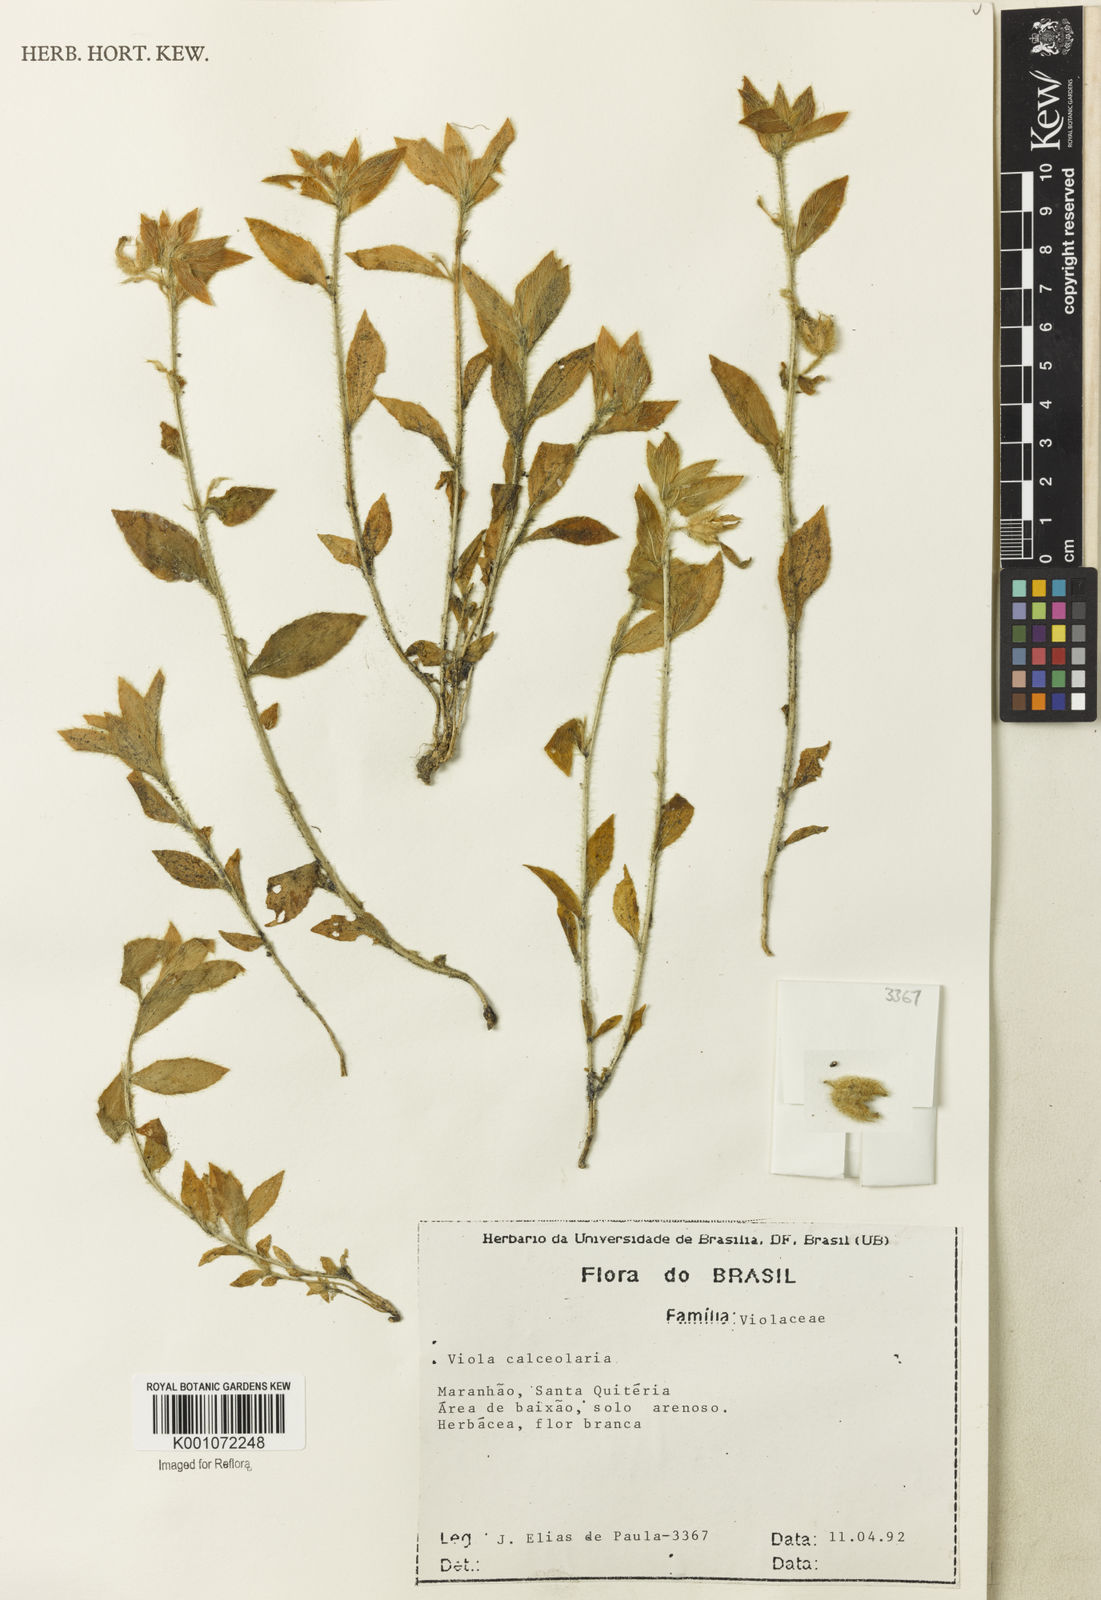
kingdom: Plantae
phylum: Tracheophyta
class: Magnoliopsida
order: Malpighiales
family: Violaceae
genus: Pombalia
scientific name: Pombalia calceolaria
